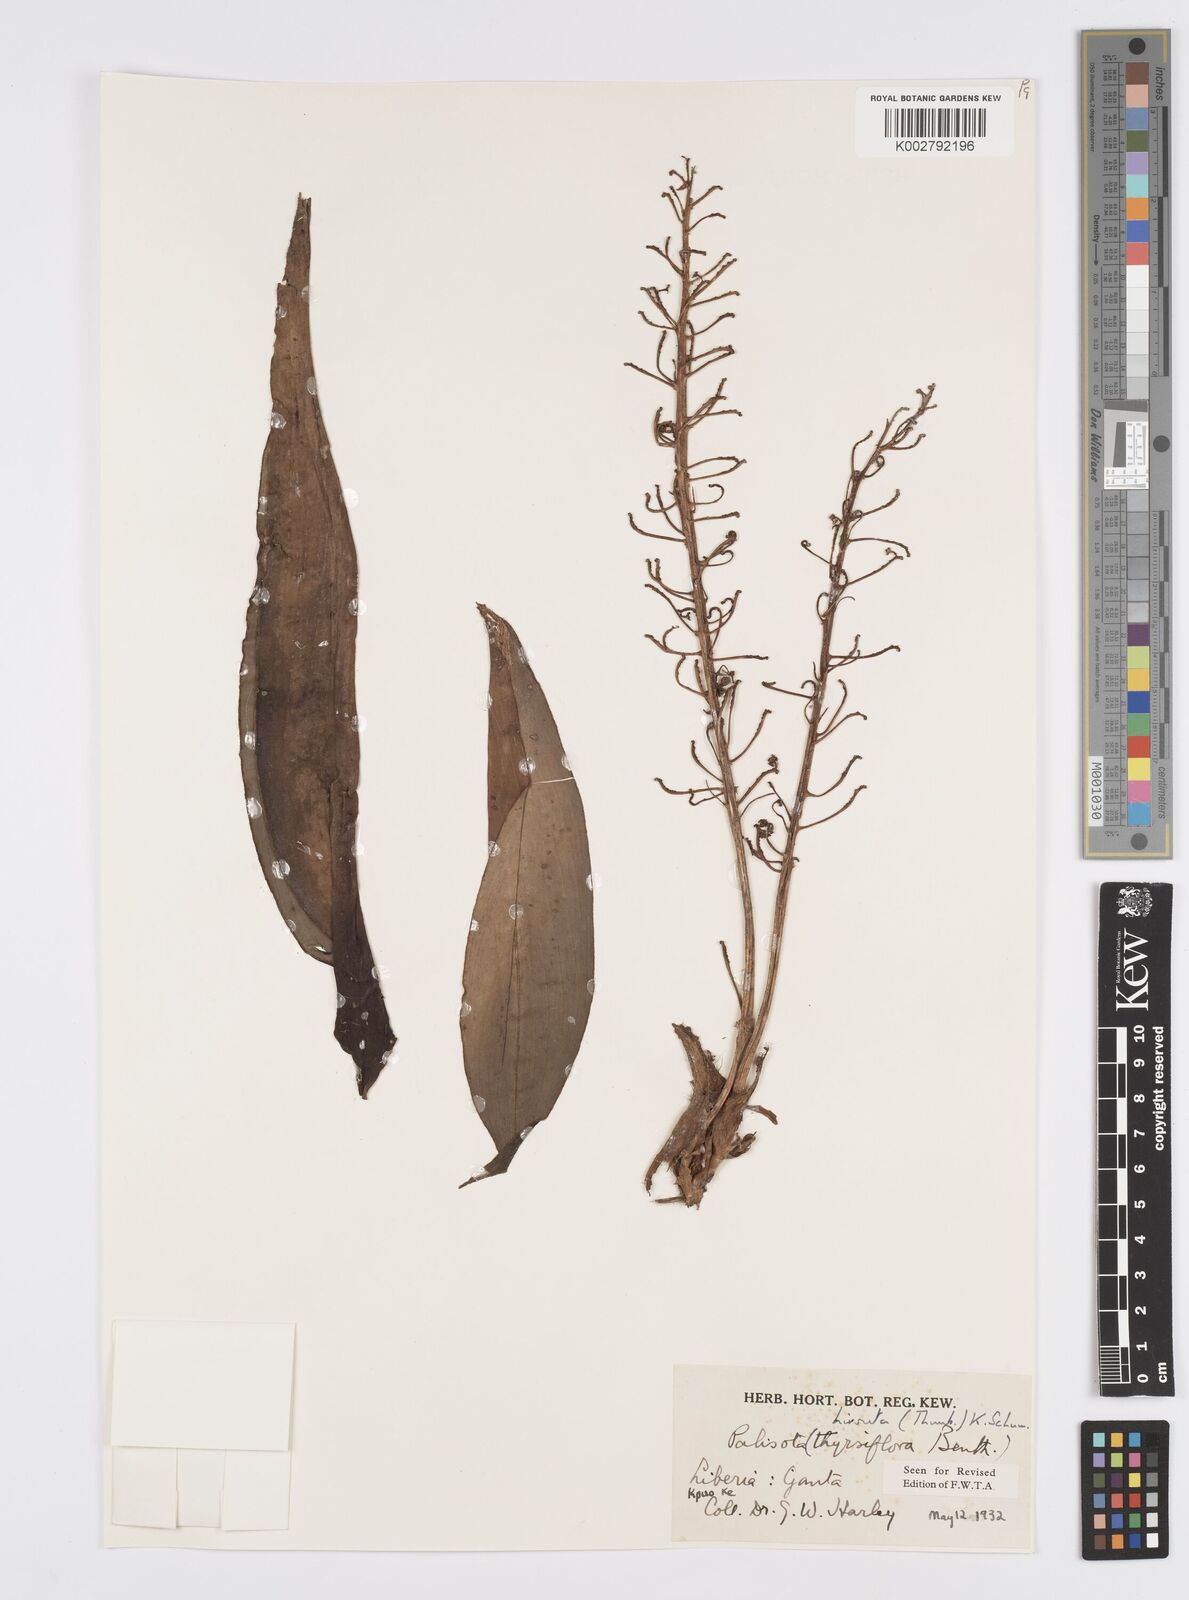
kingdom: Plantae
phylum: Tracheophyta
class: Liliopsida
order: Commelinales
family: Commelinaceae
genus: Palisota
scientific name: Palisota hirsuta
